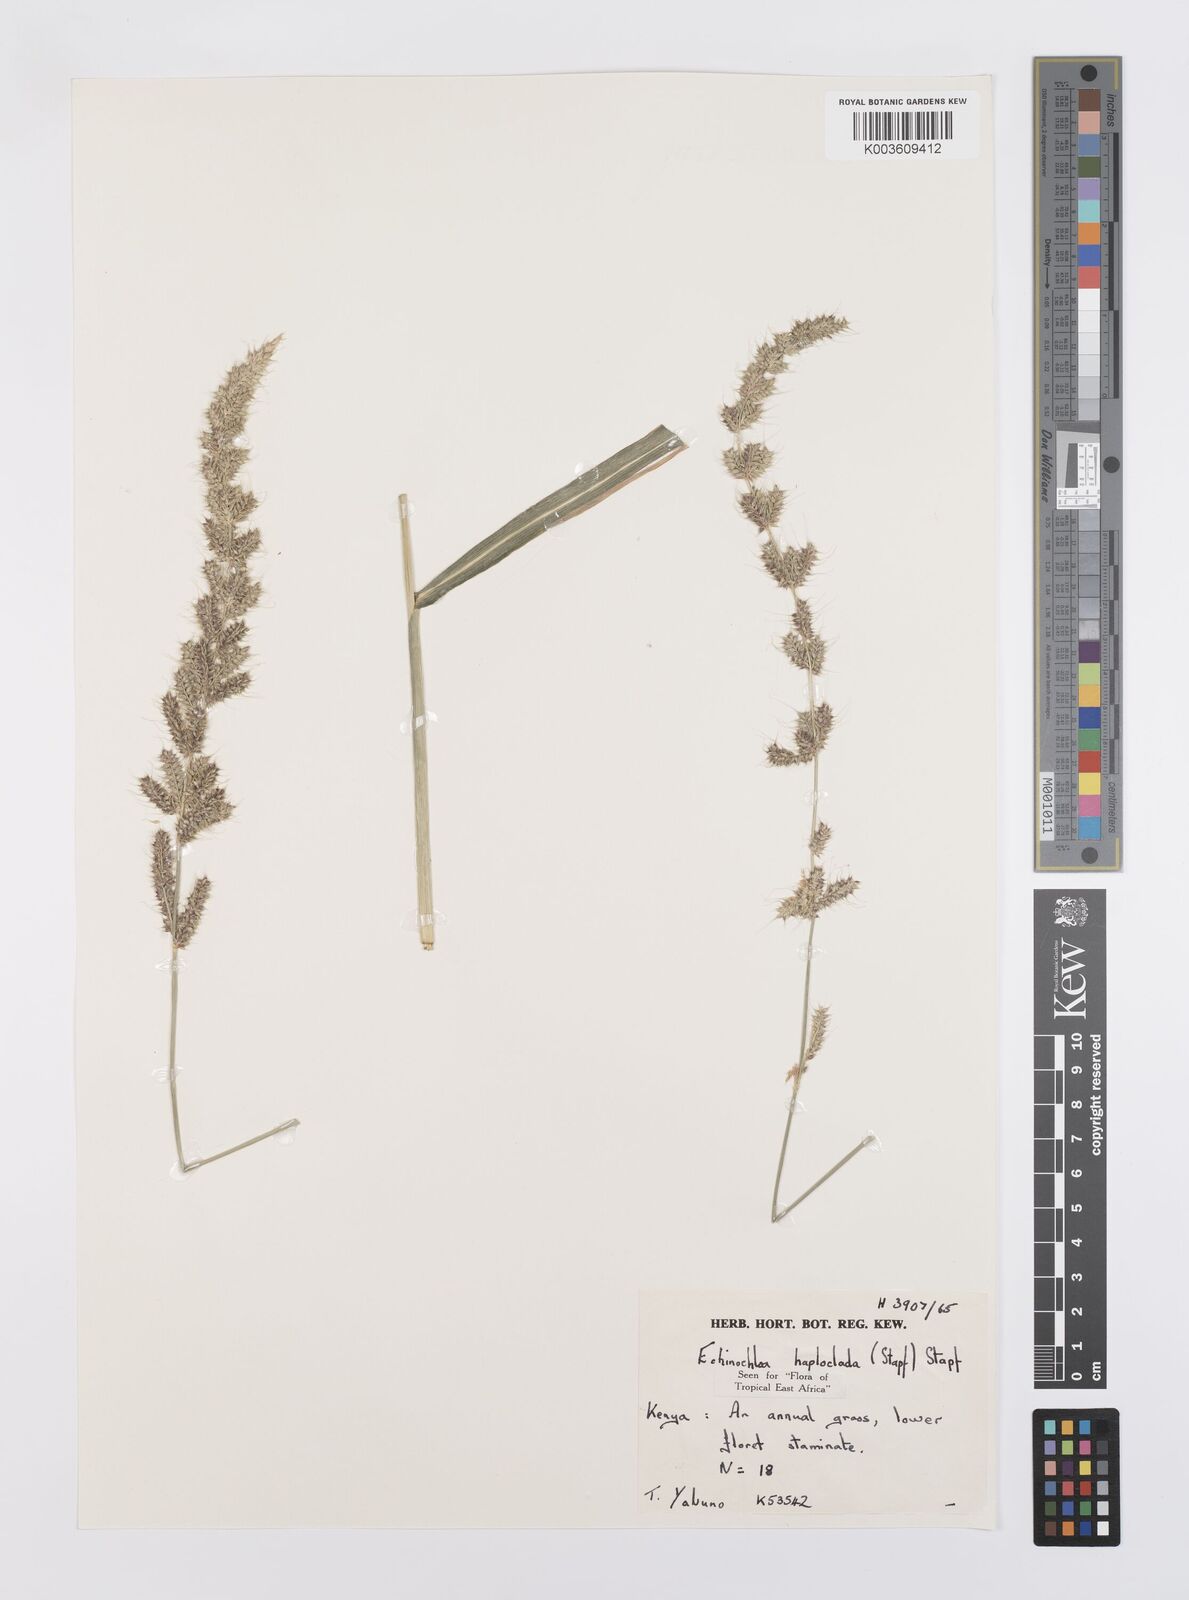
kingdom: Plantae
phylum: Tracheophyta
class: Liliopsida
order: Poales
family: Poaceae
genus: Echinochloa
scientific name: Echinochloa haploclada
